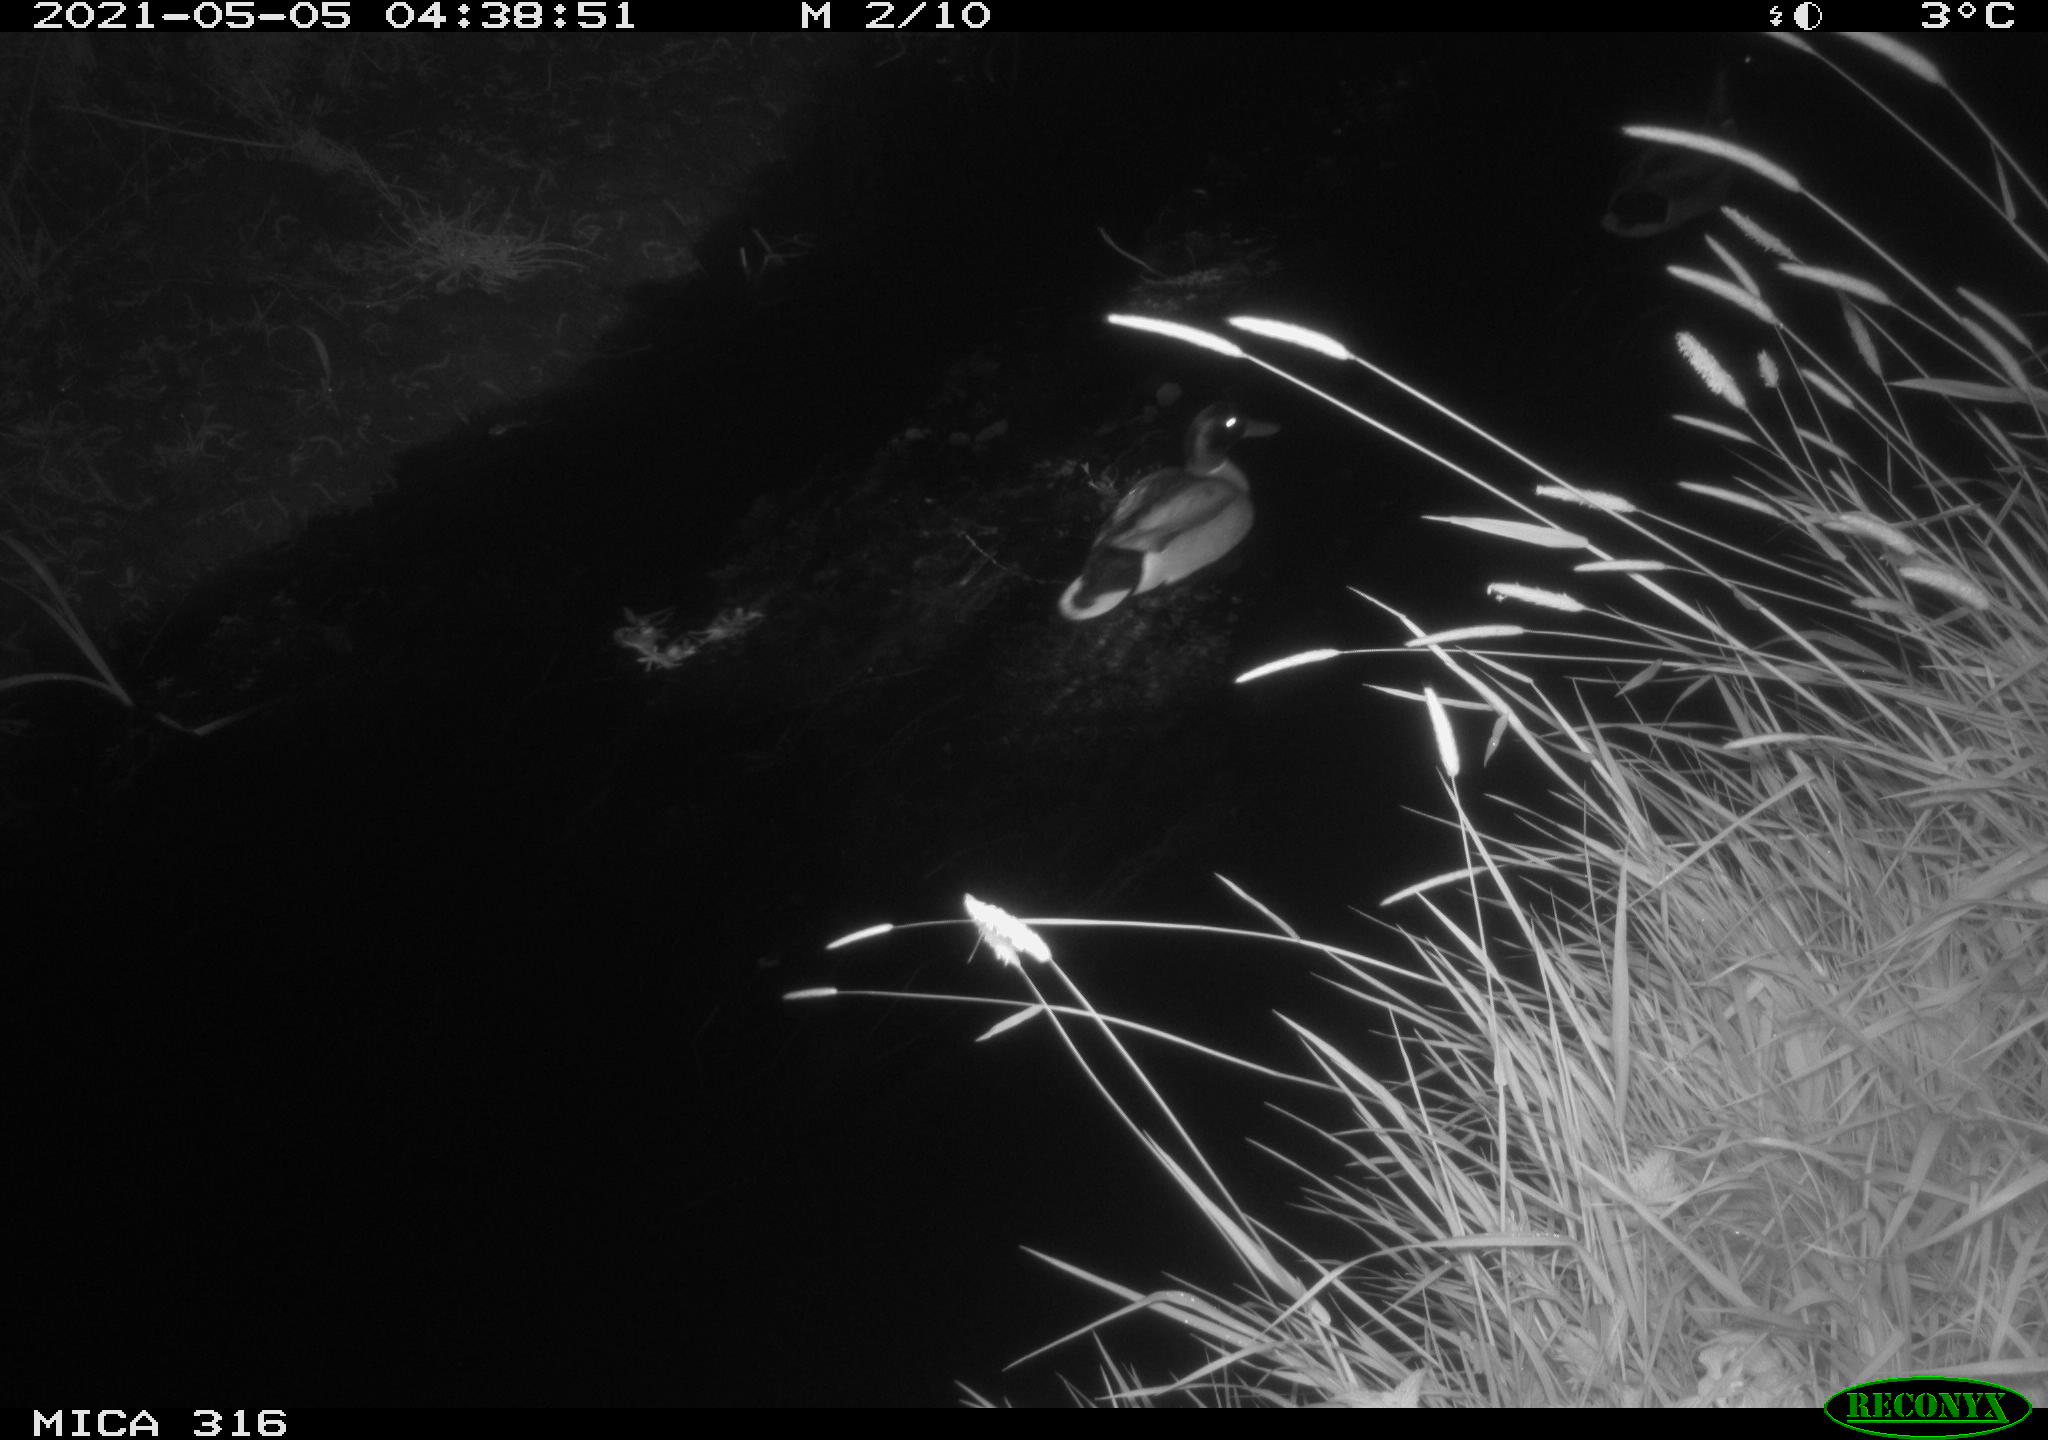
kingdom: Animalia
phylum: Chordata
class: Aves
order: Anseriformes
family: Anatidae
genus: Anas
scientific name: Anas platyrhynchos
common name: Mallard
